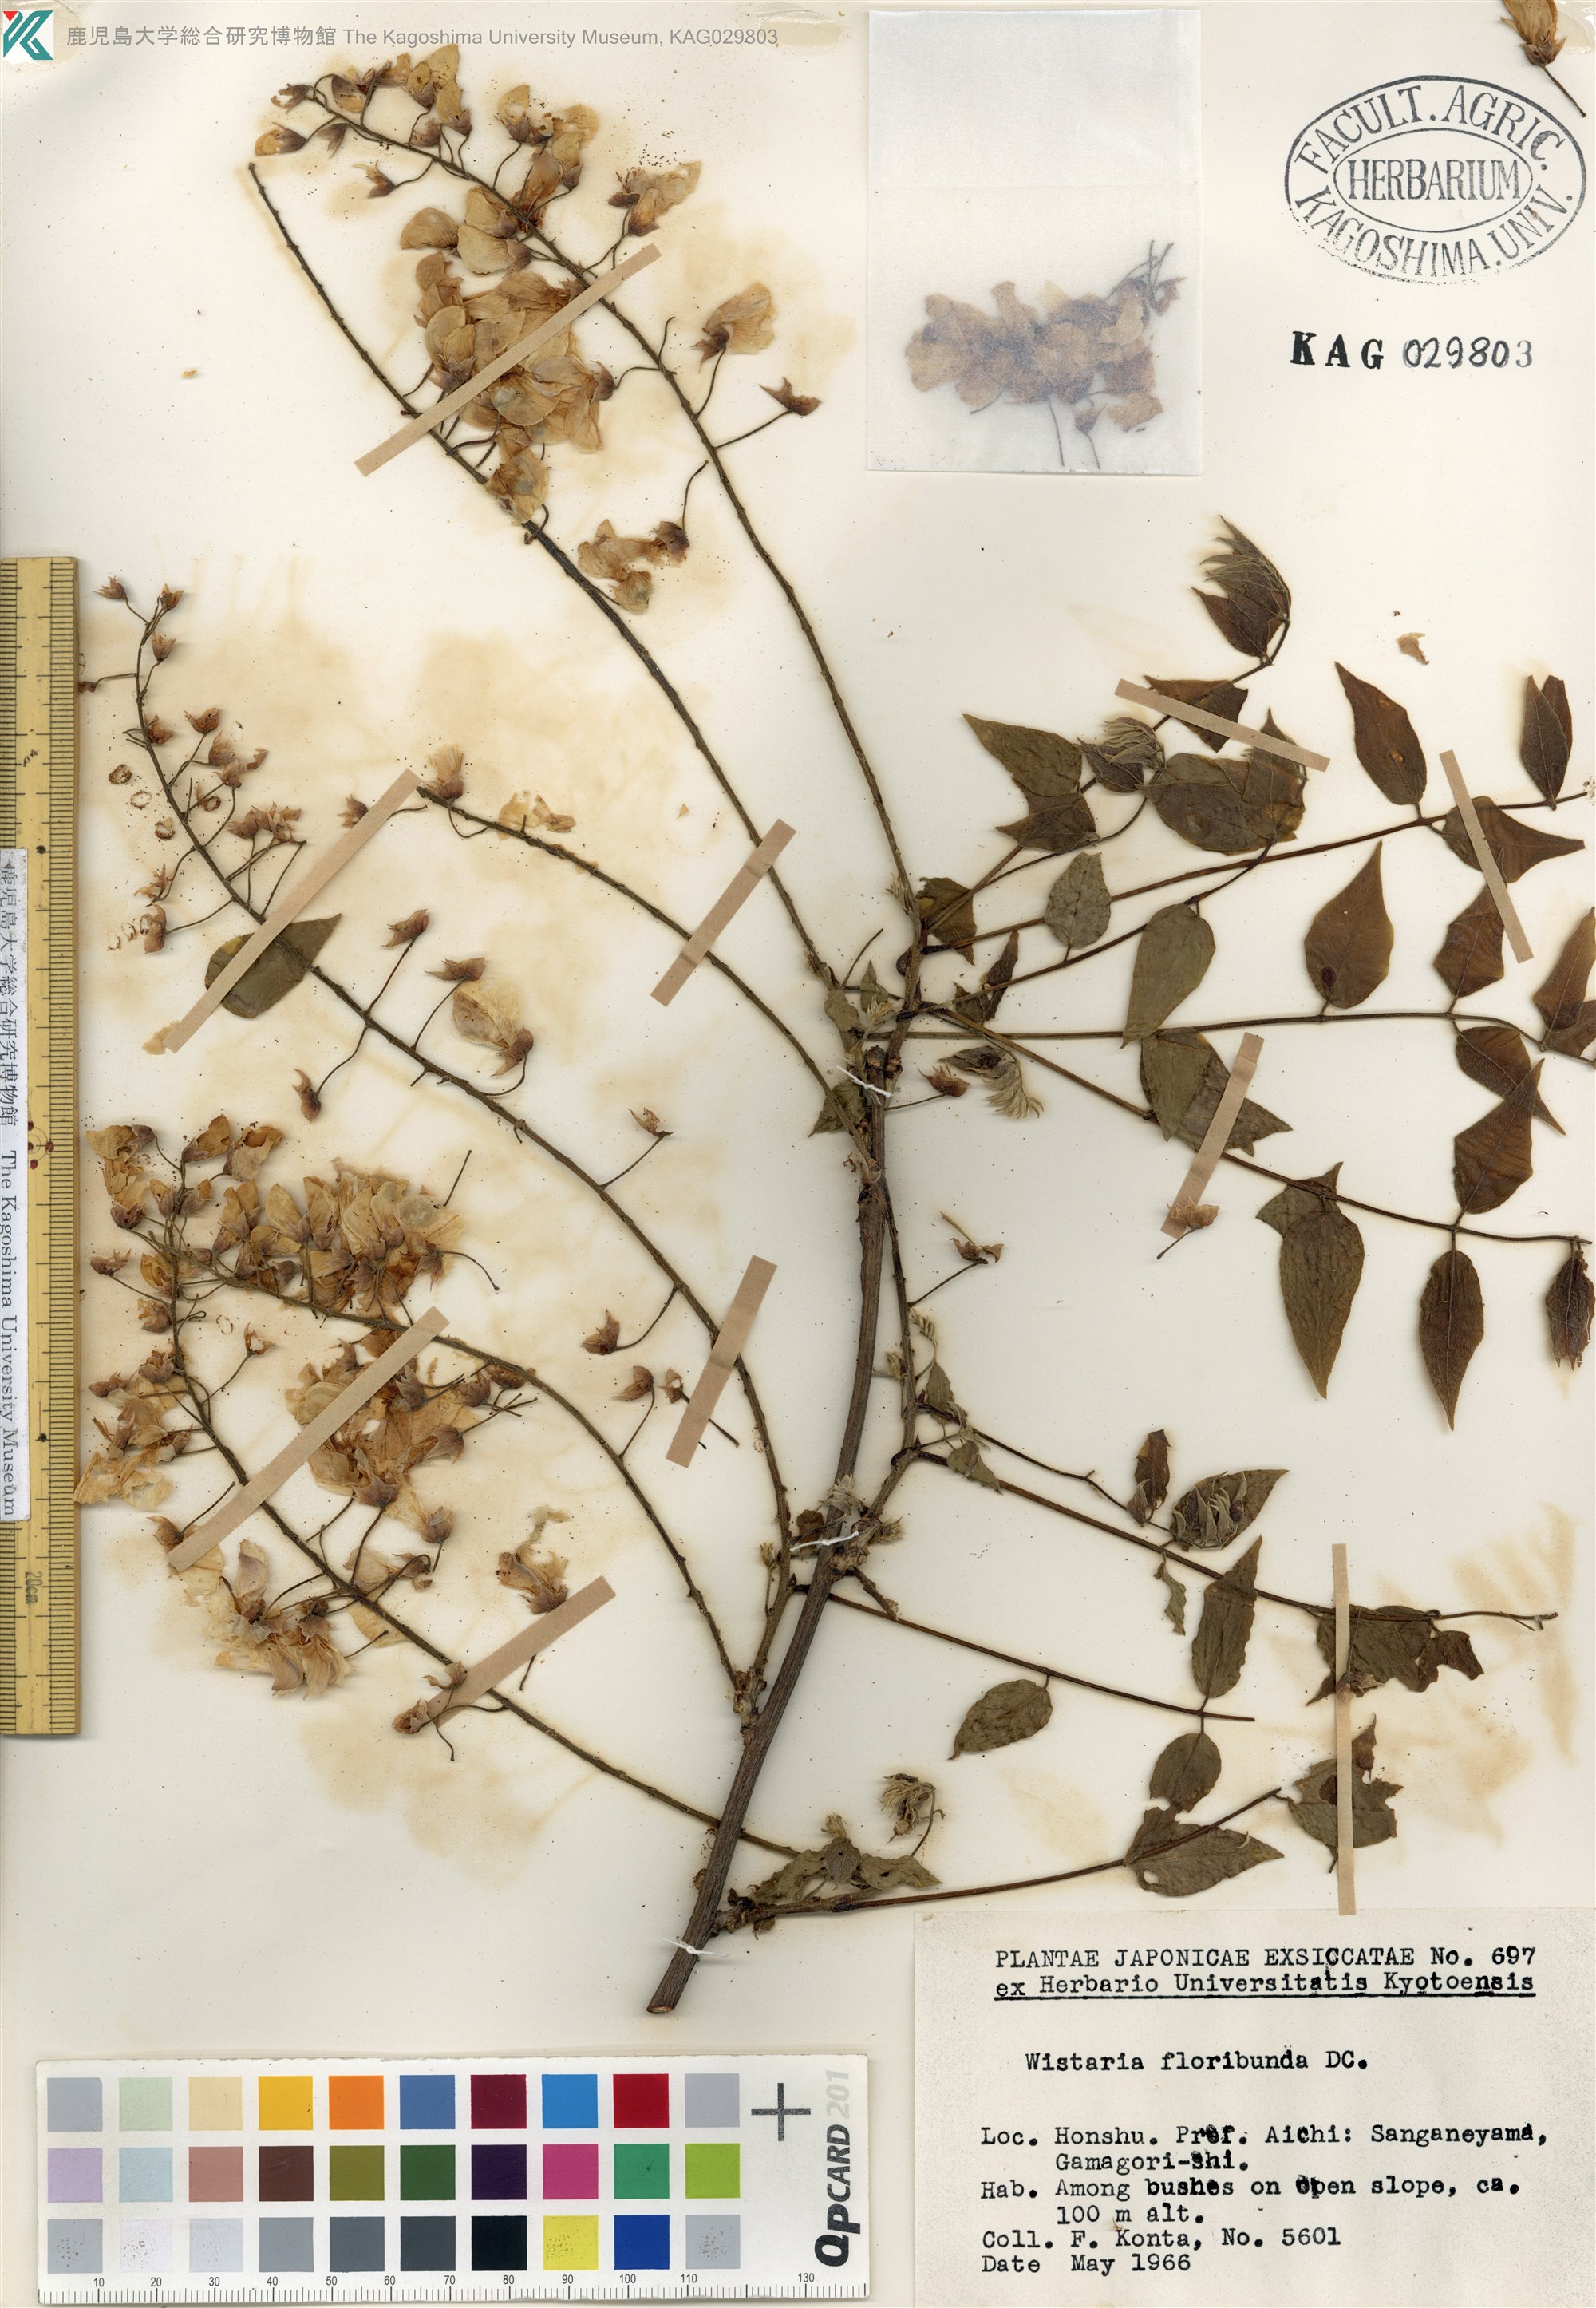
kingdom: Plantae
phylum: Tracheophyta
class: Magnoliopsida
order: Fabales
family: Fabaceae
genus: Wisteria
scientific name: Wisteria floribunda
